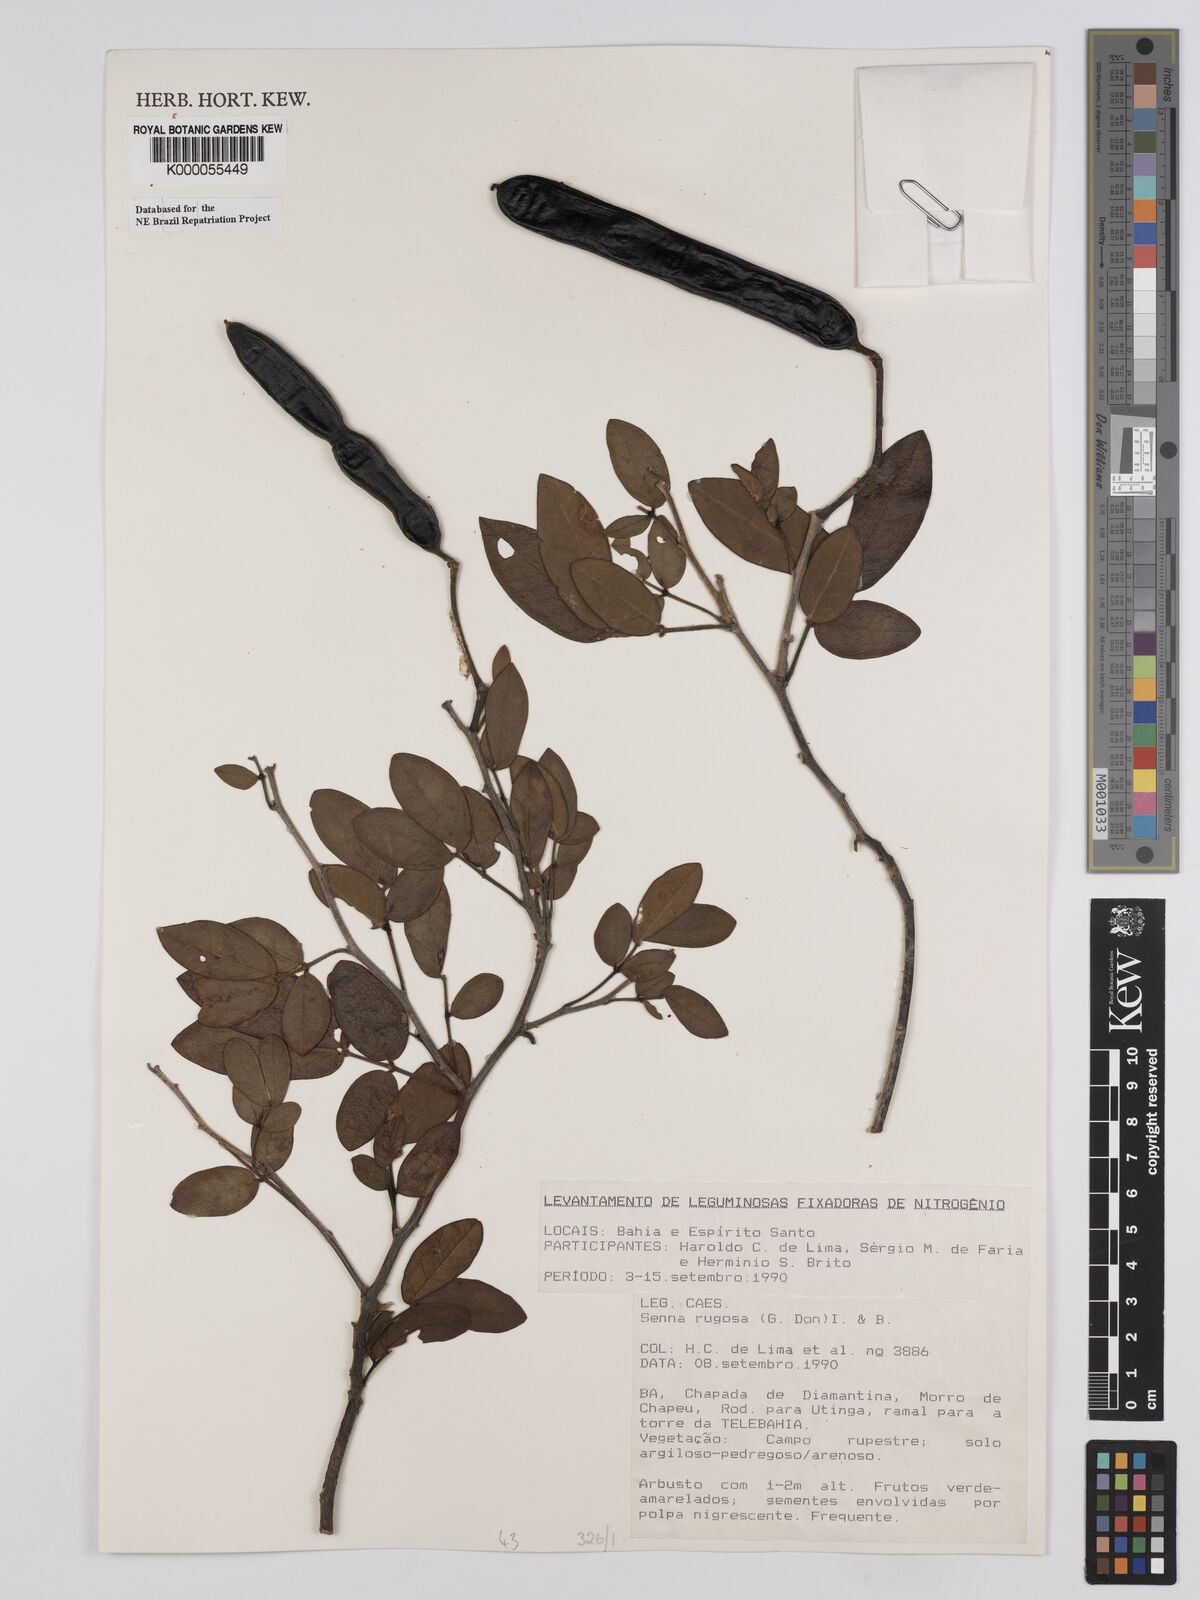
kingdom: Plantae
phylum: Tracheophyta
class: Magnoliopsida
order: Fabales
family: Fabaceae
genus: Senna
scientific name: Senna macranthera
